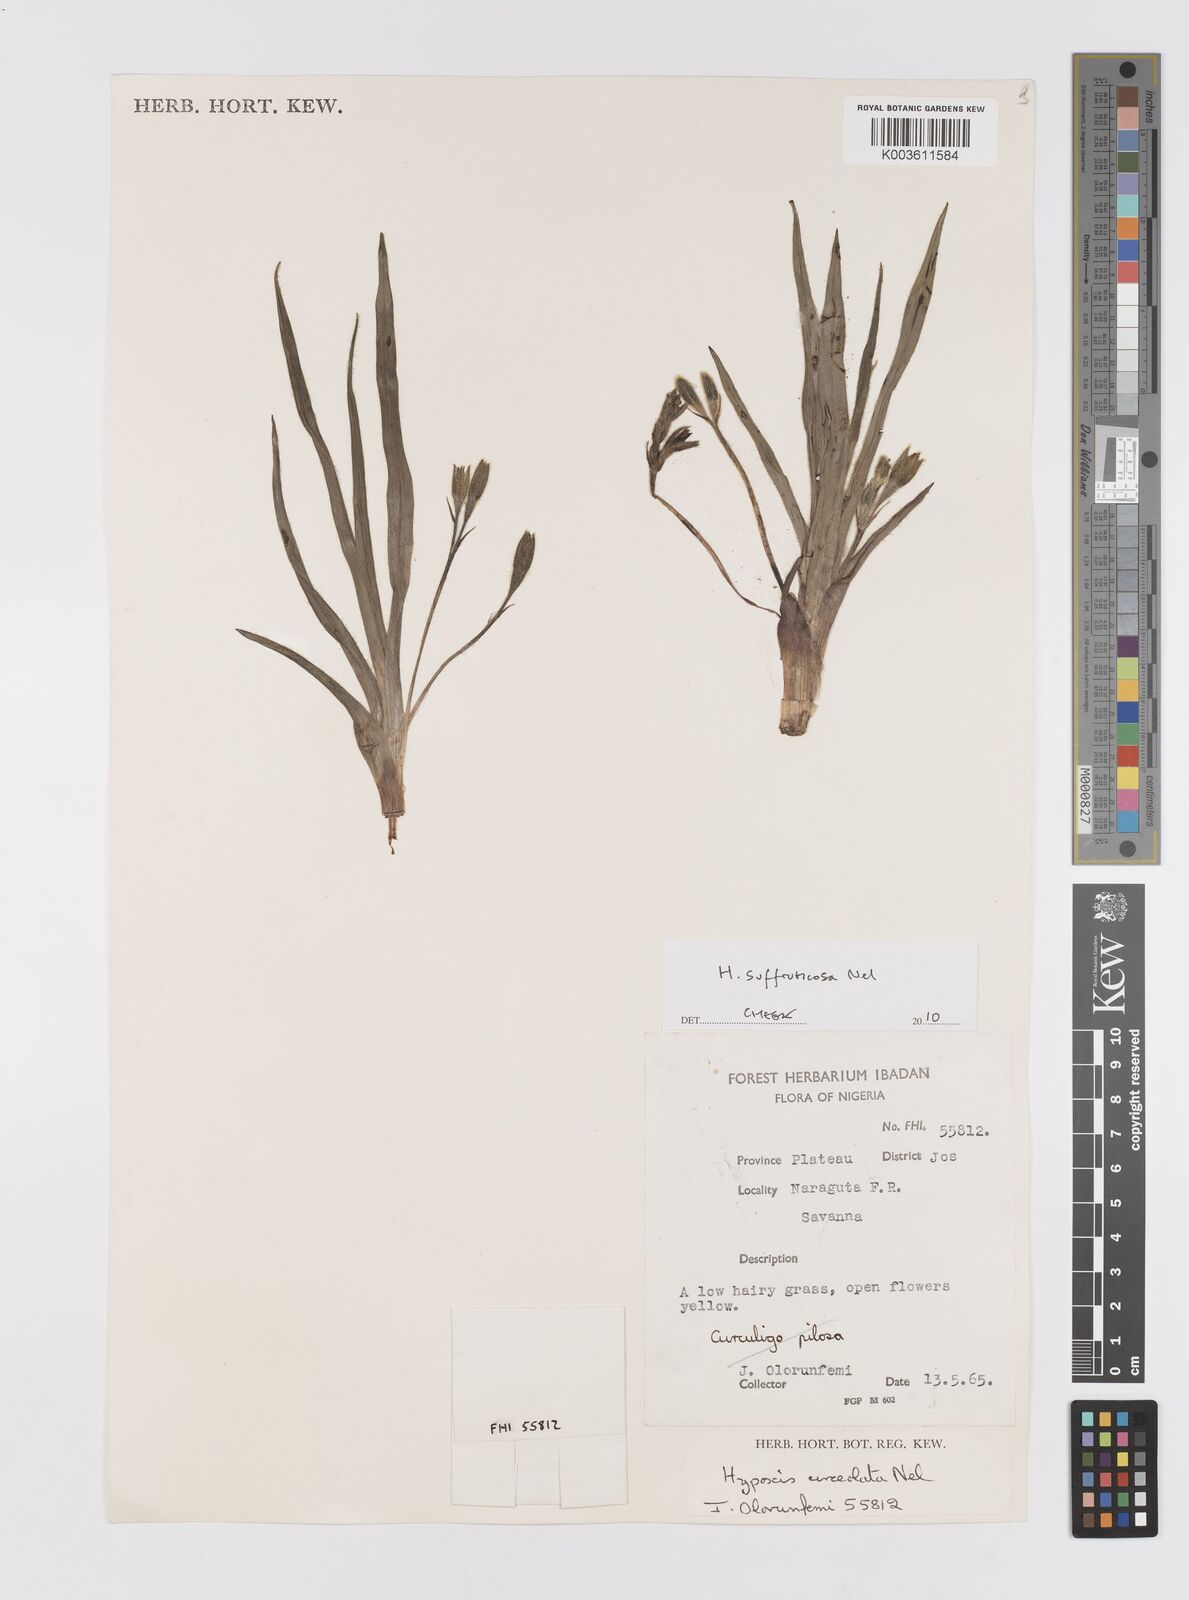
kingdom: Plantae
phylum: Tracheophyta
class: Liliopsida
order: Asparagales
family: Hypoxidaceae
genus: Hypoxis
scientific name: Hypoxis suffruticosa
